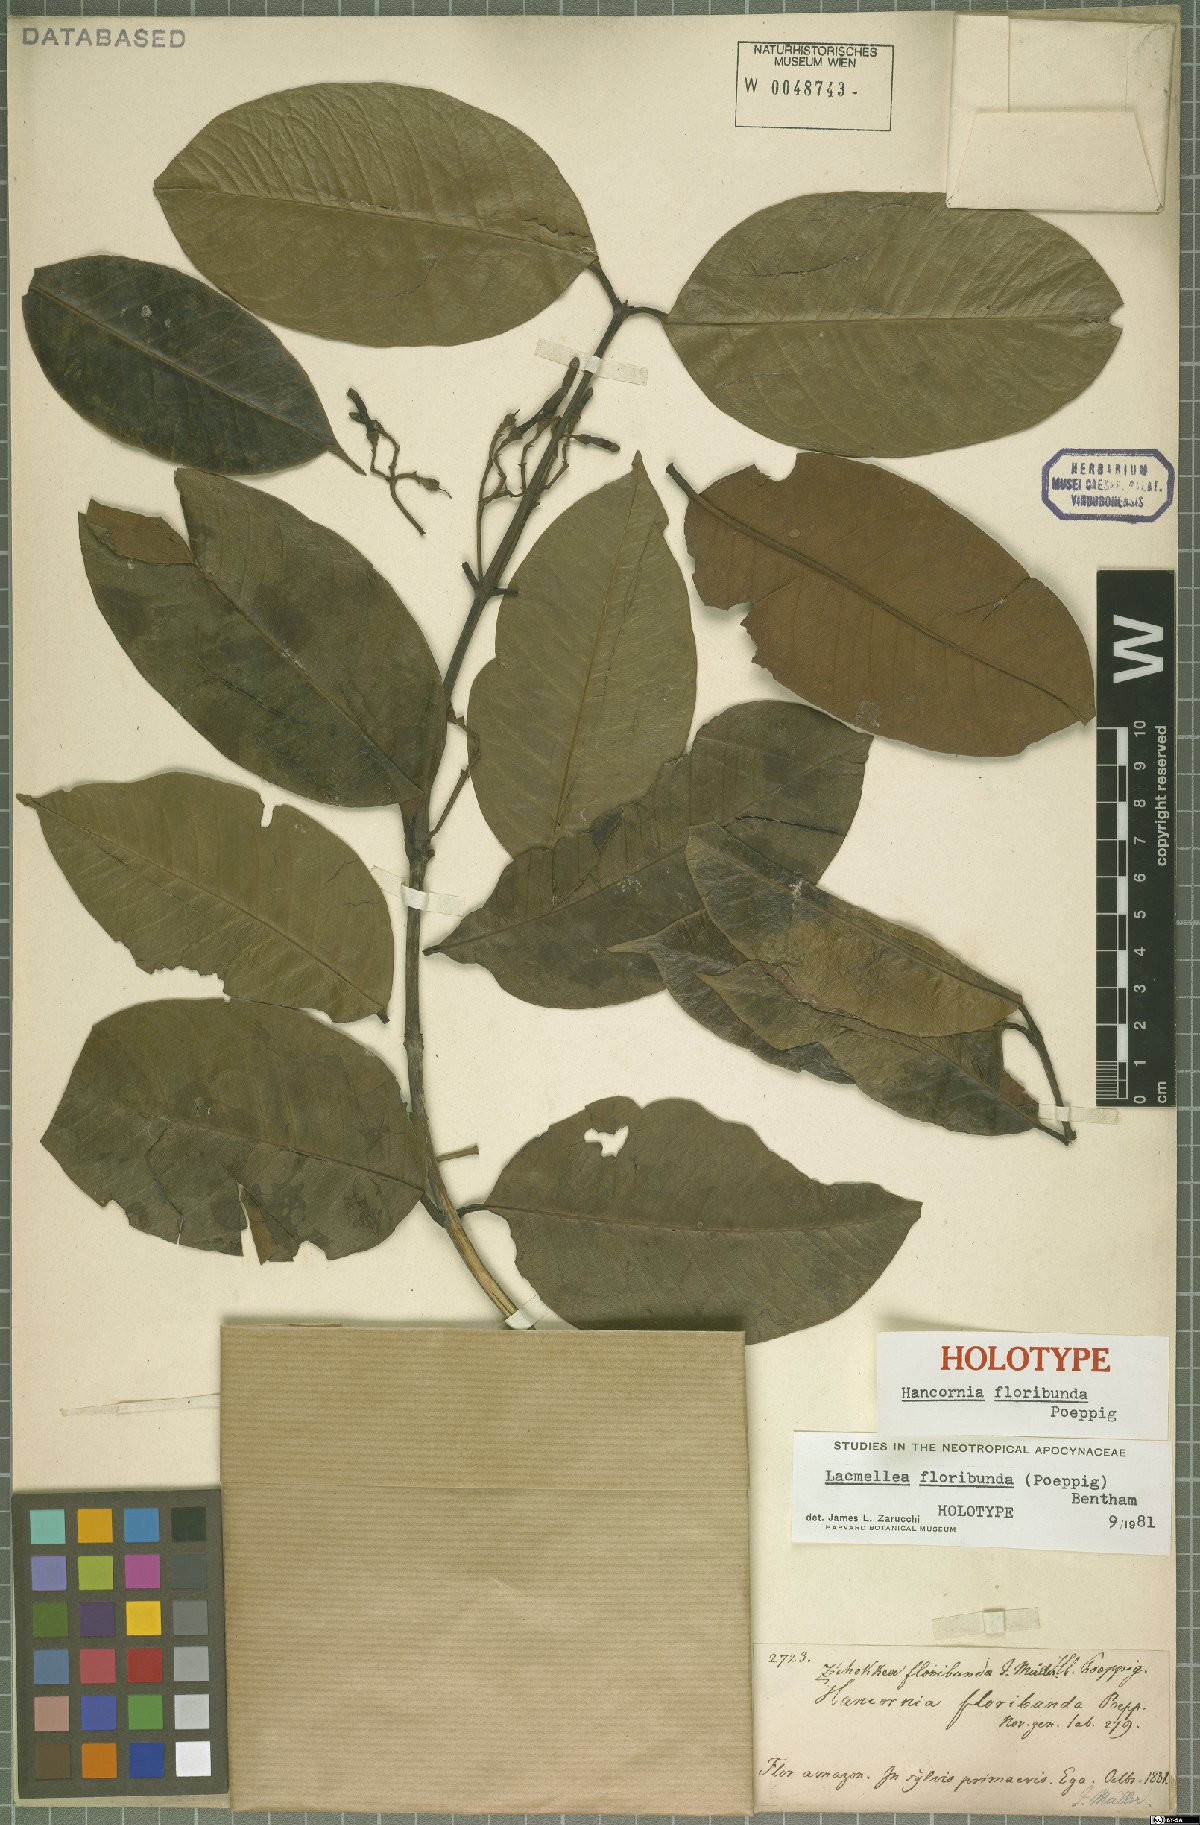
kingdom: Plantae
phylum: Tracheophyta
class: Magnoliopsida
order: Gentianales
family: Apocynaceae
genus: Lacmellea
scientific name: Lacmellea floribunda
